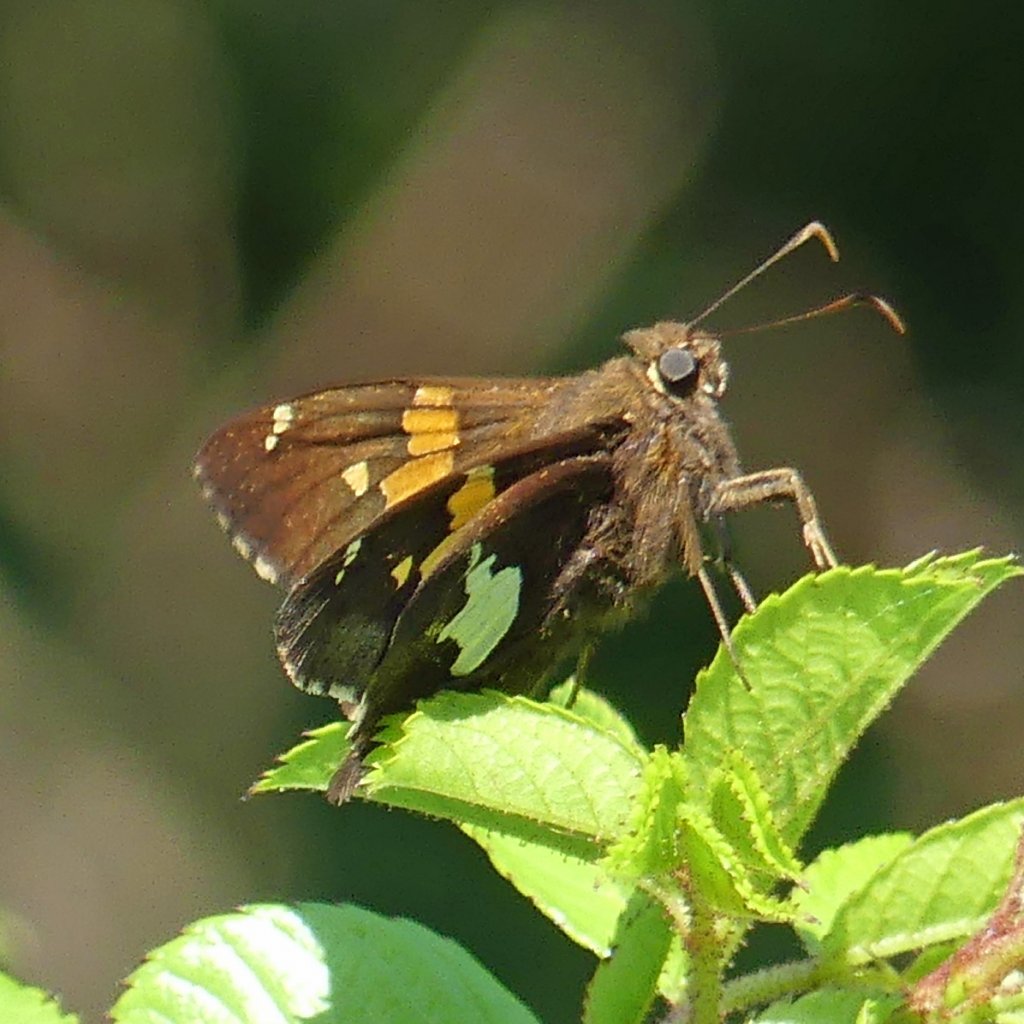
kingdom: Animalia
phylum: Arthropoda
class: Insecta
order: Lepidoptera
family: Hesperiidae
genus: Epargyreus
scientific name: Epargyreus clarus
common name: Silver-spotted Skipper
